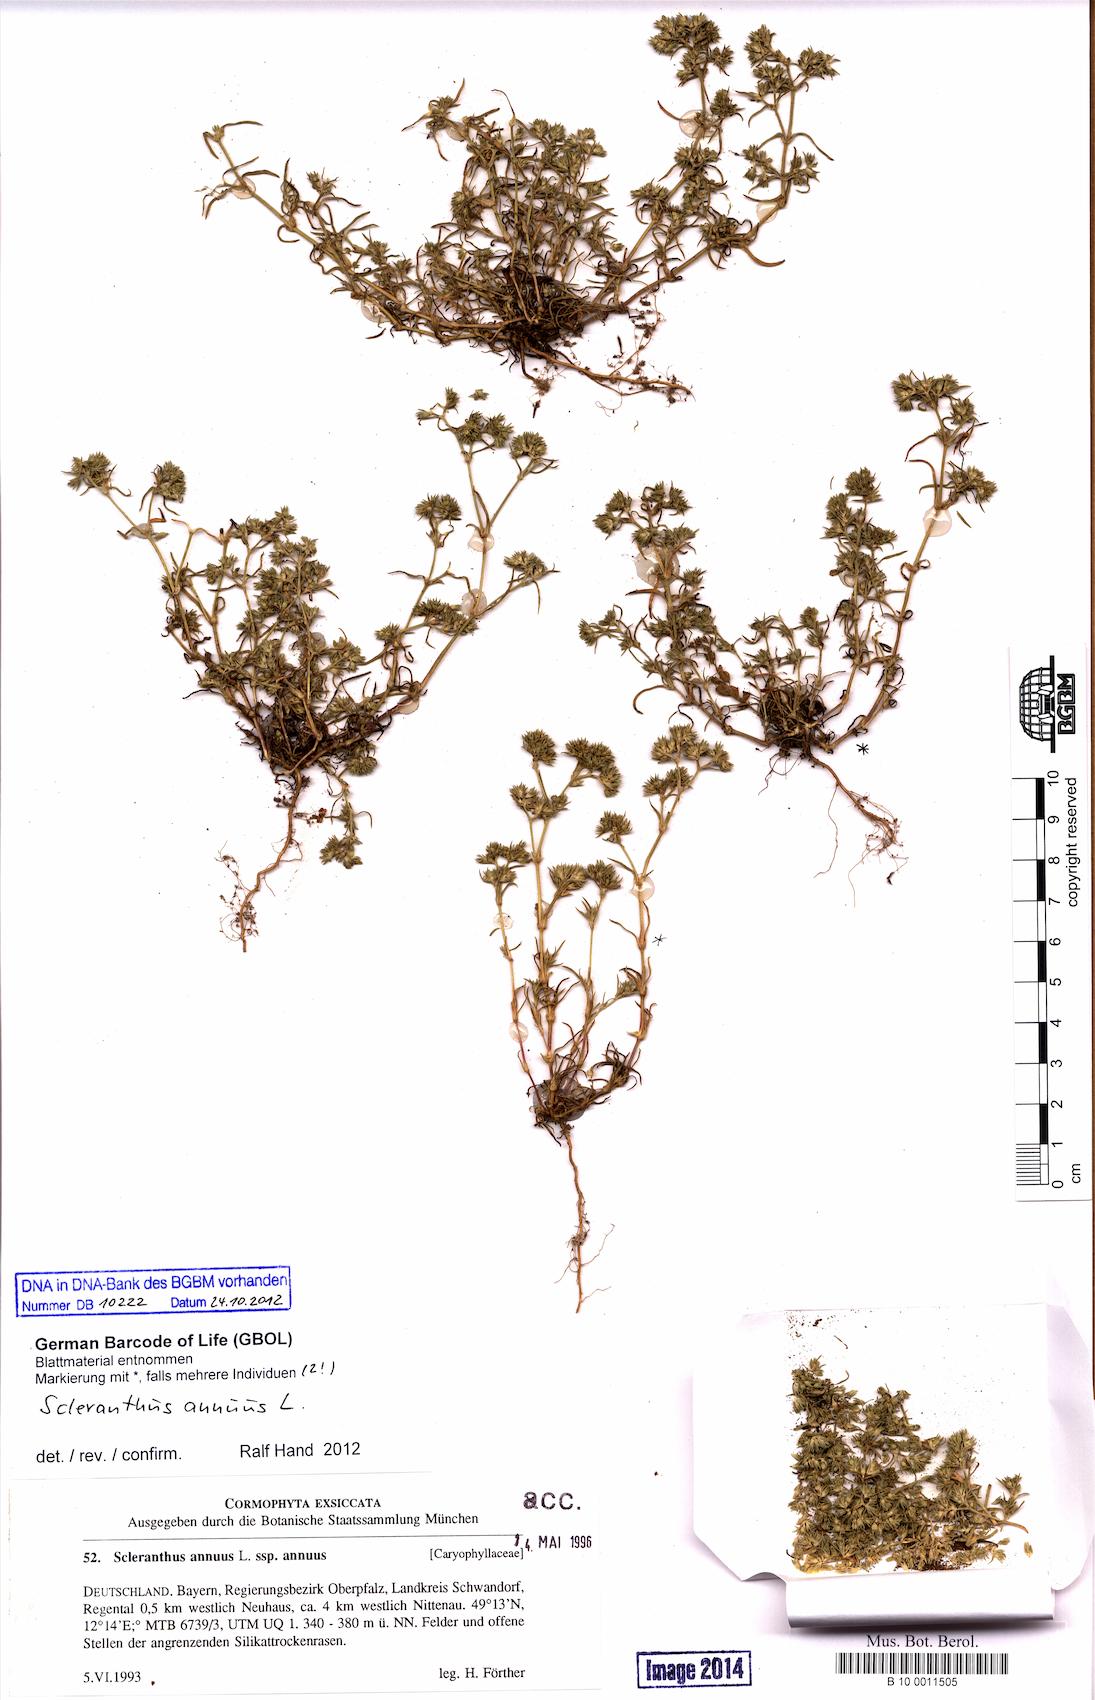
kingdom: Plantae
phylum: Tracheophyta
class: Magnoliopsida
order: Caryophyllales
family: Caryophyllaceae
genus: Scleranthus
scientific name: Scleranthus annuus
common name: Annual knawel
